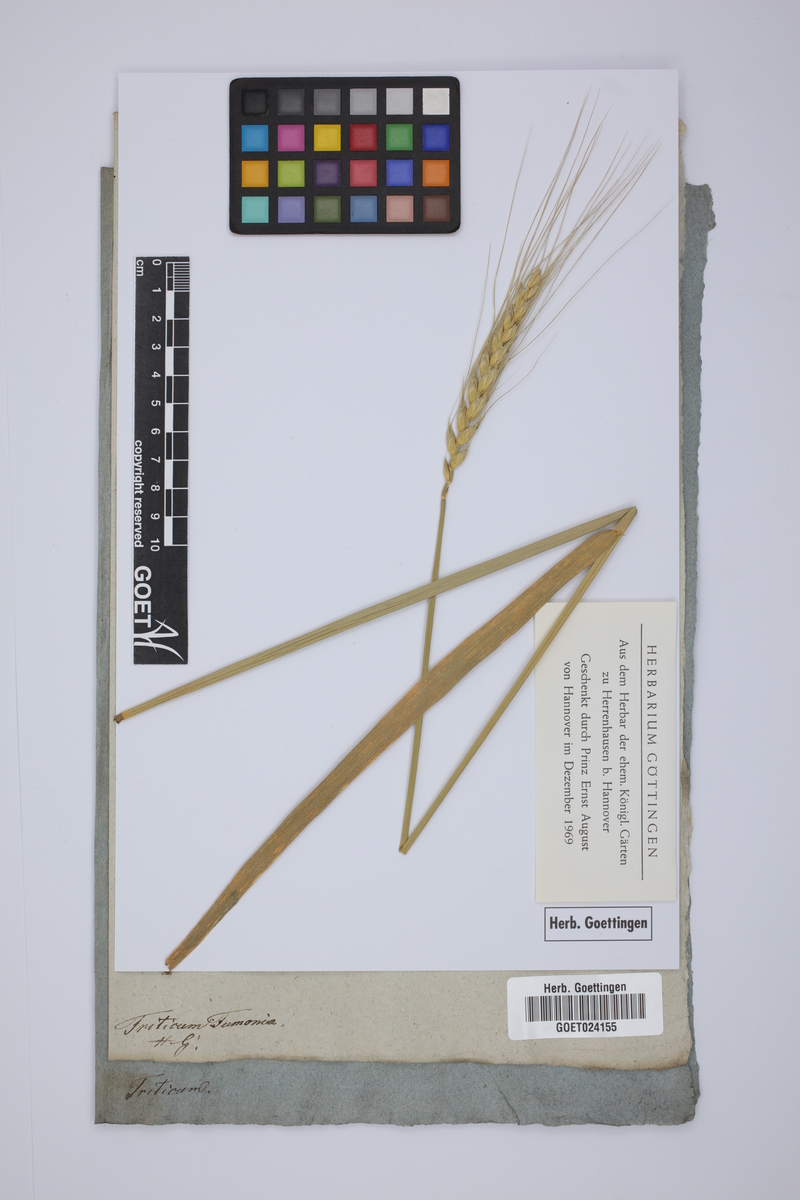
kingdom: Plantae
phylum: Tracheophyta
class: Liliopsida
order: Poales
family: Poaceae
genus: Triticum
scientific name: Triticum tumonia
